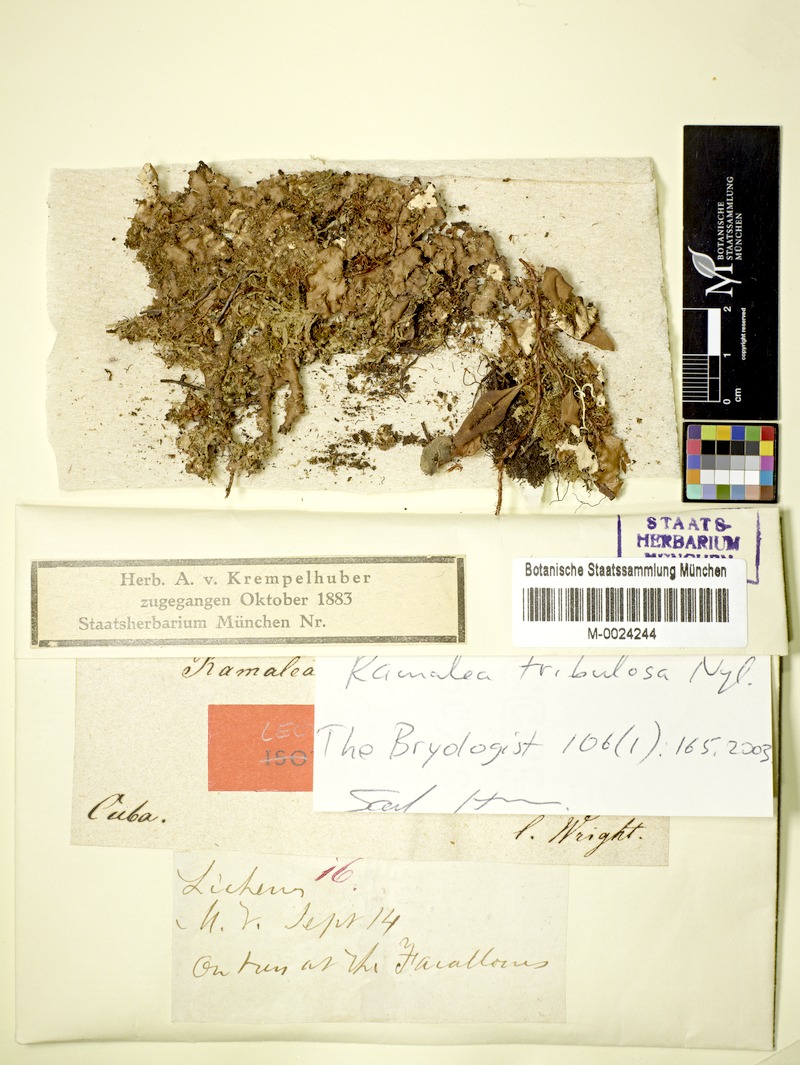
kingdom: Fungi
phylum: Ascomycota
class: Lecanoromycetes
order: Lecanorales
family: Cladoniaceae
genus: Ramalea
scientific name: Ramalea tribulosa
